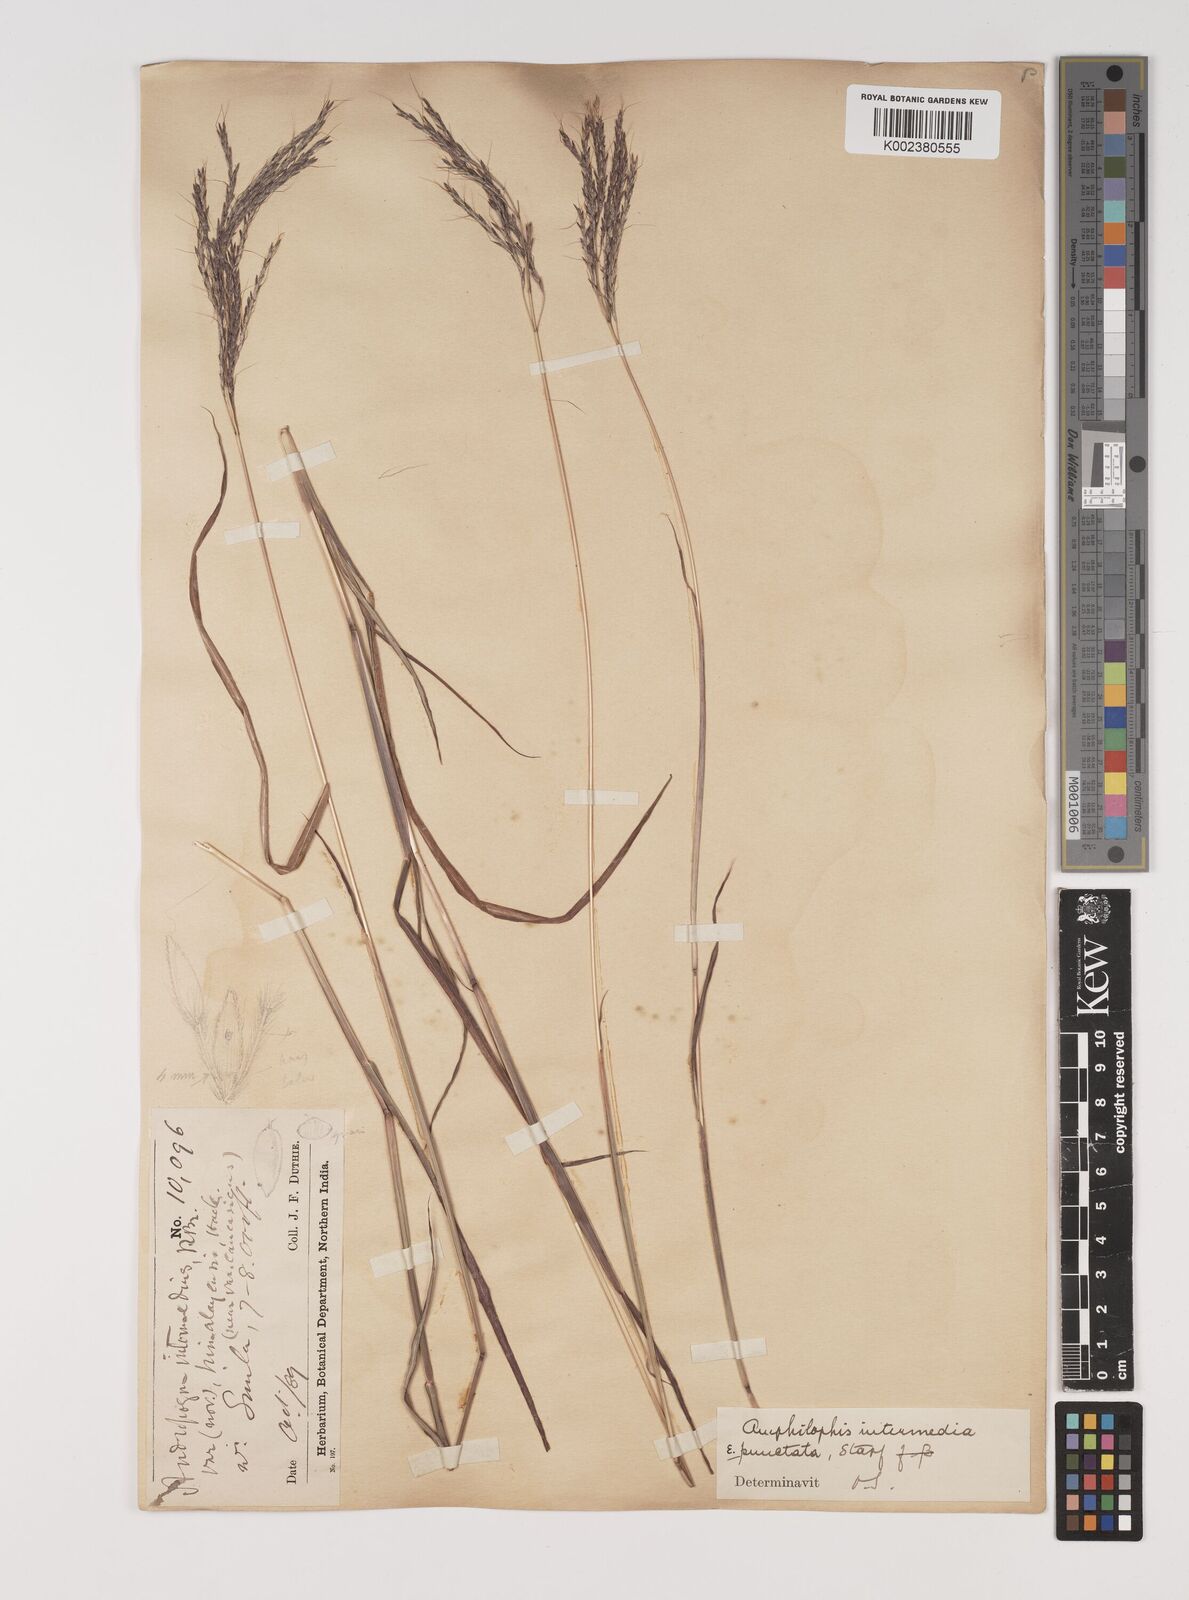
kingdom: Plantae
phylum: Tracheophyta
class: Liliopsida
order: Poales
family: Poaceae
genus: Bothriochloa
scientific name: Bothriochloa bladhii
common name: Caucasian bluestem
